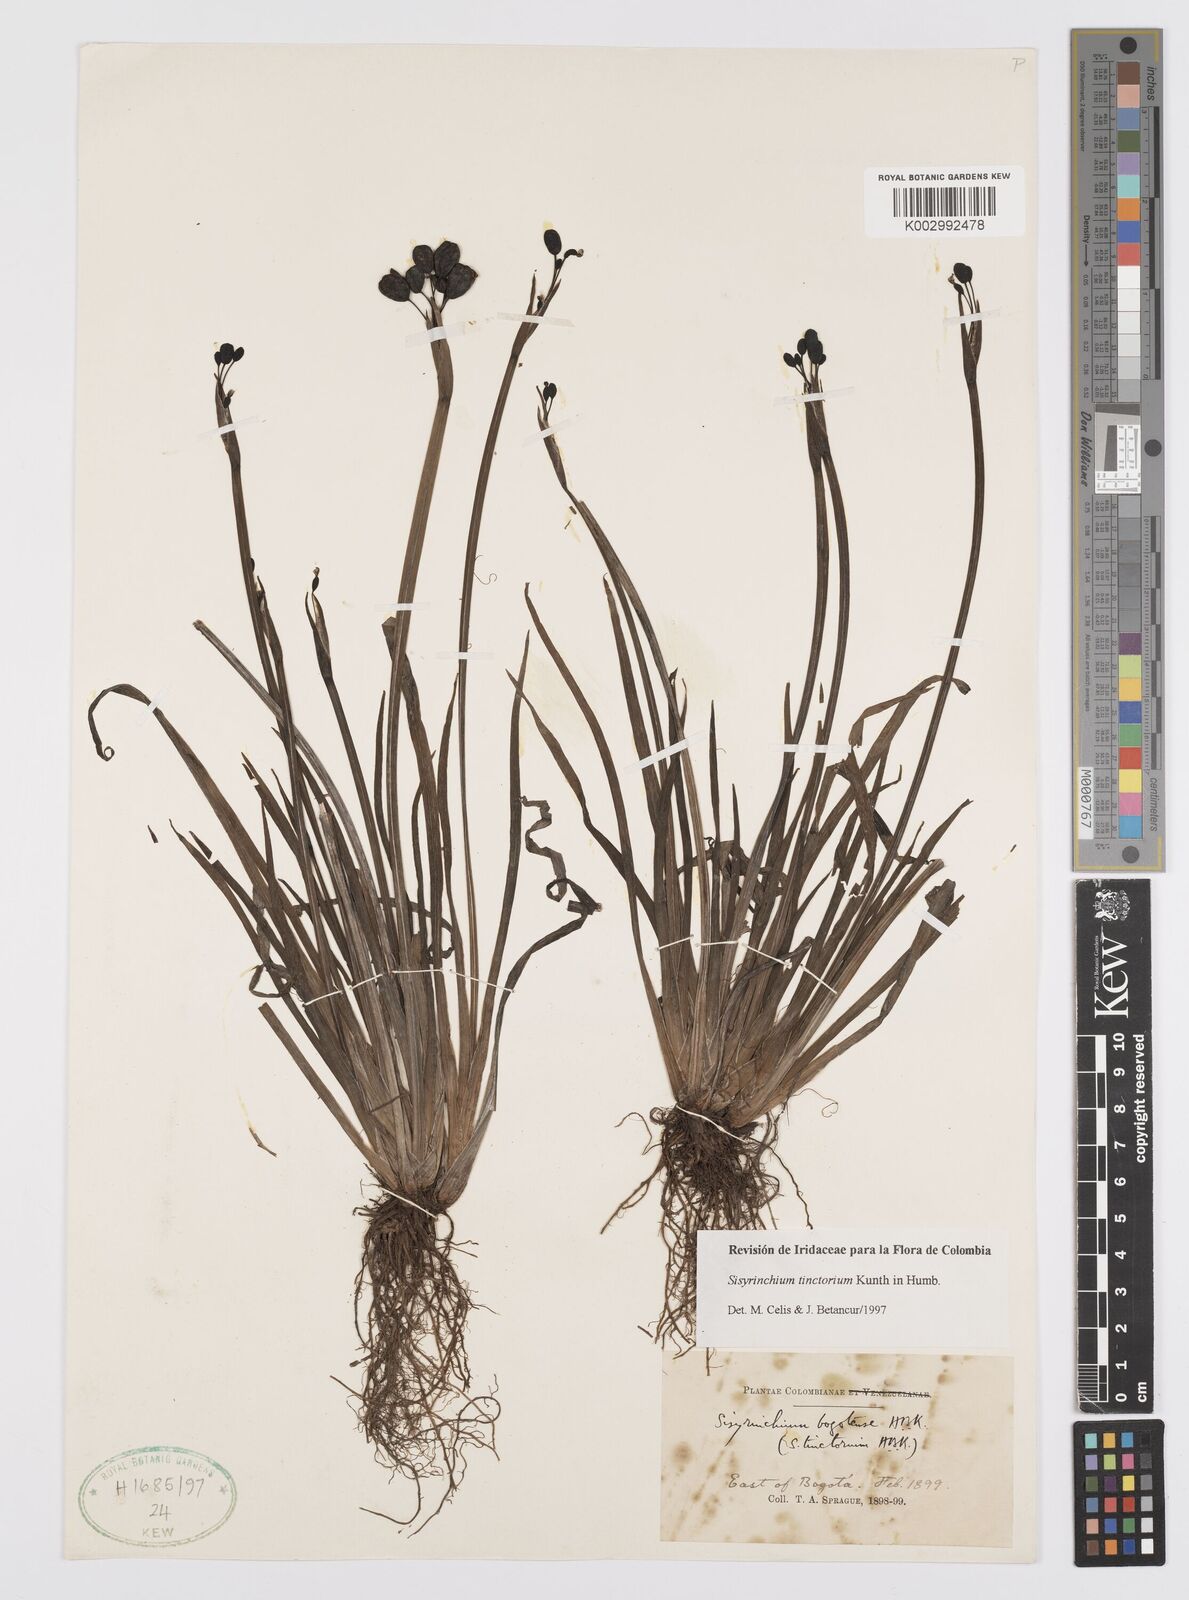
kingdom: Plantae
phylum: Tracheophyta
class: Liliopsida
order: Asparagales
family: Iridaceae
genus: Sisyrinchium
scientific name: Sisyrinchium tinctorium
